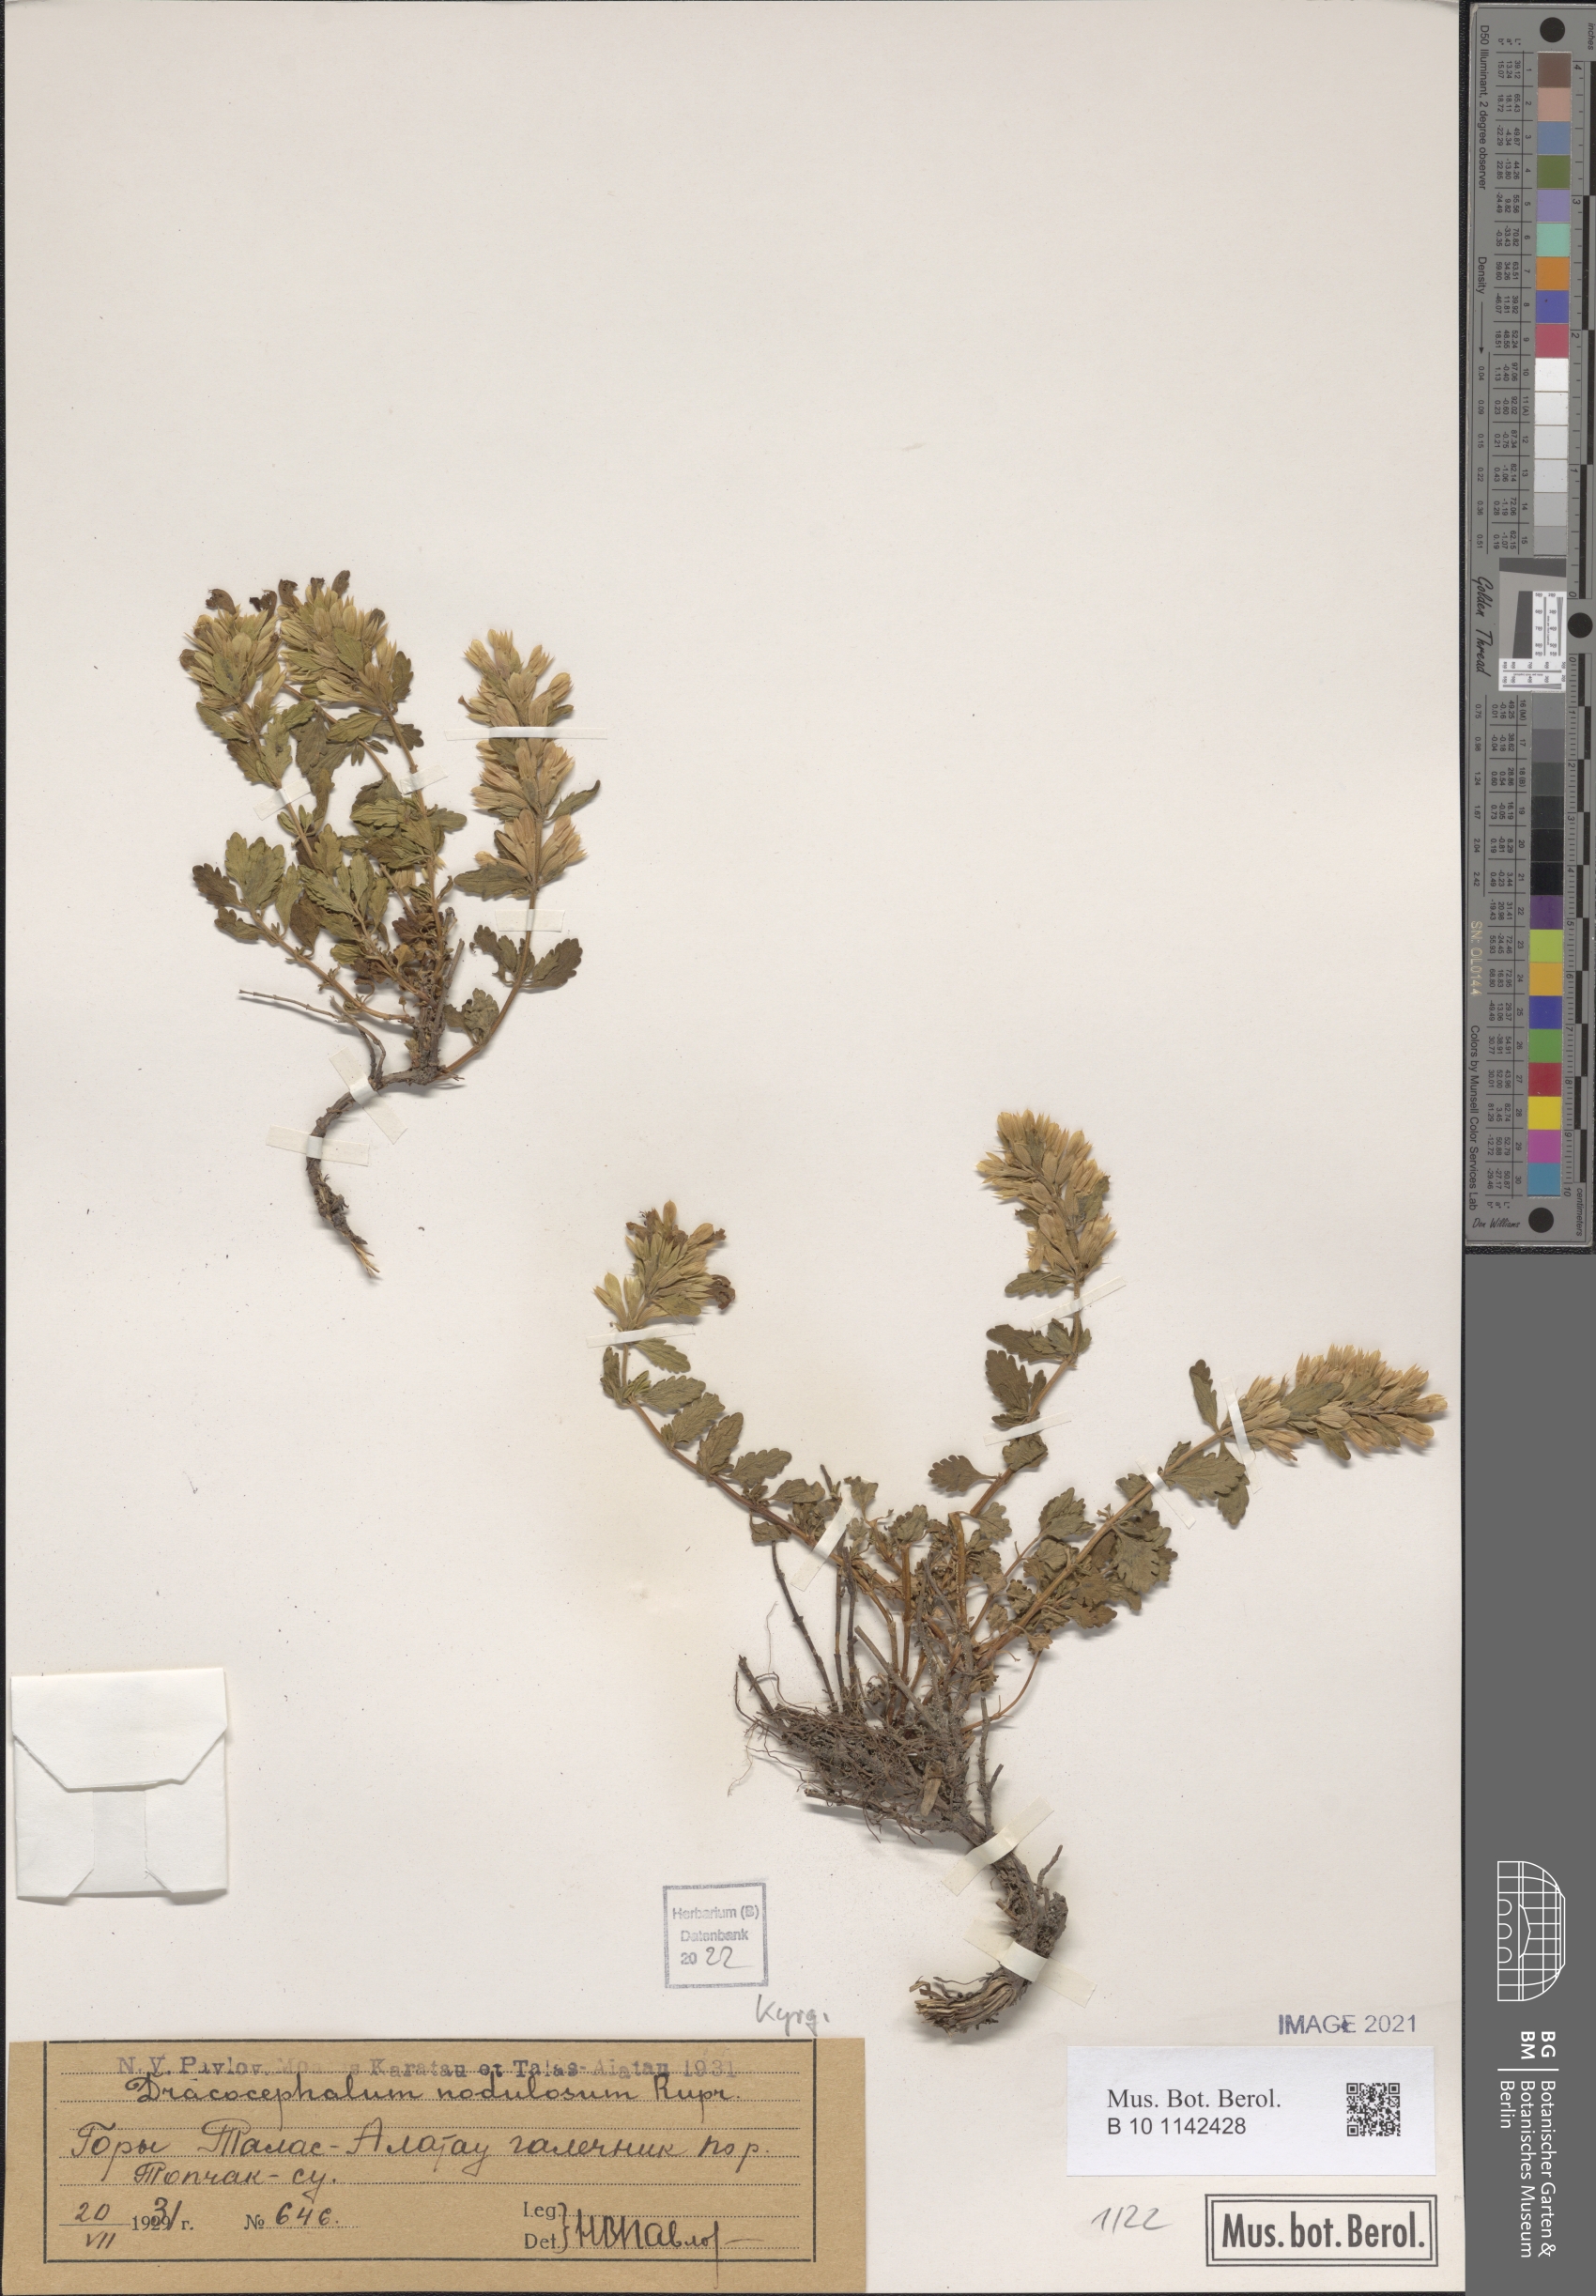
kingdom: Plantae
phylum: Tracheophyta
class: Magnoliopsida
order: Lamiales
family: Lamiaceae
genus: Dracocephalum
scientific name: Dracocephalum nodulosum
